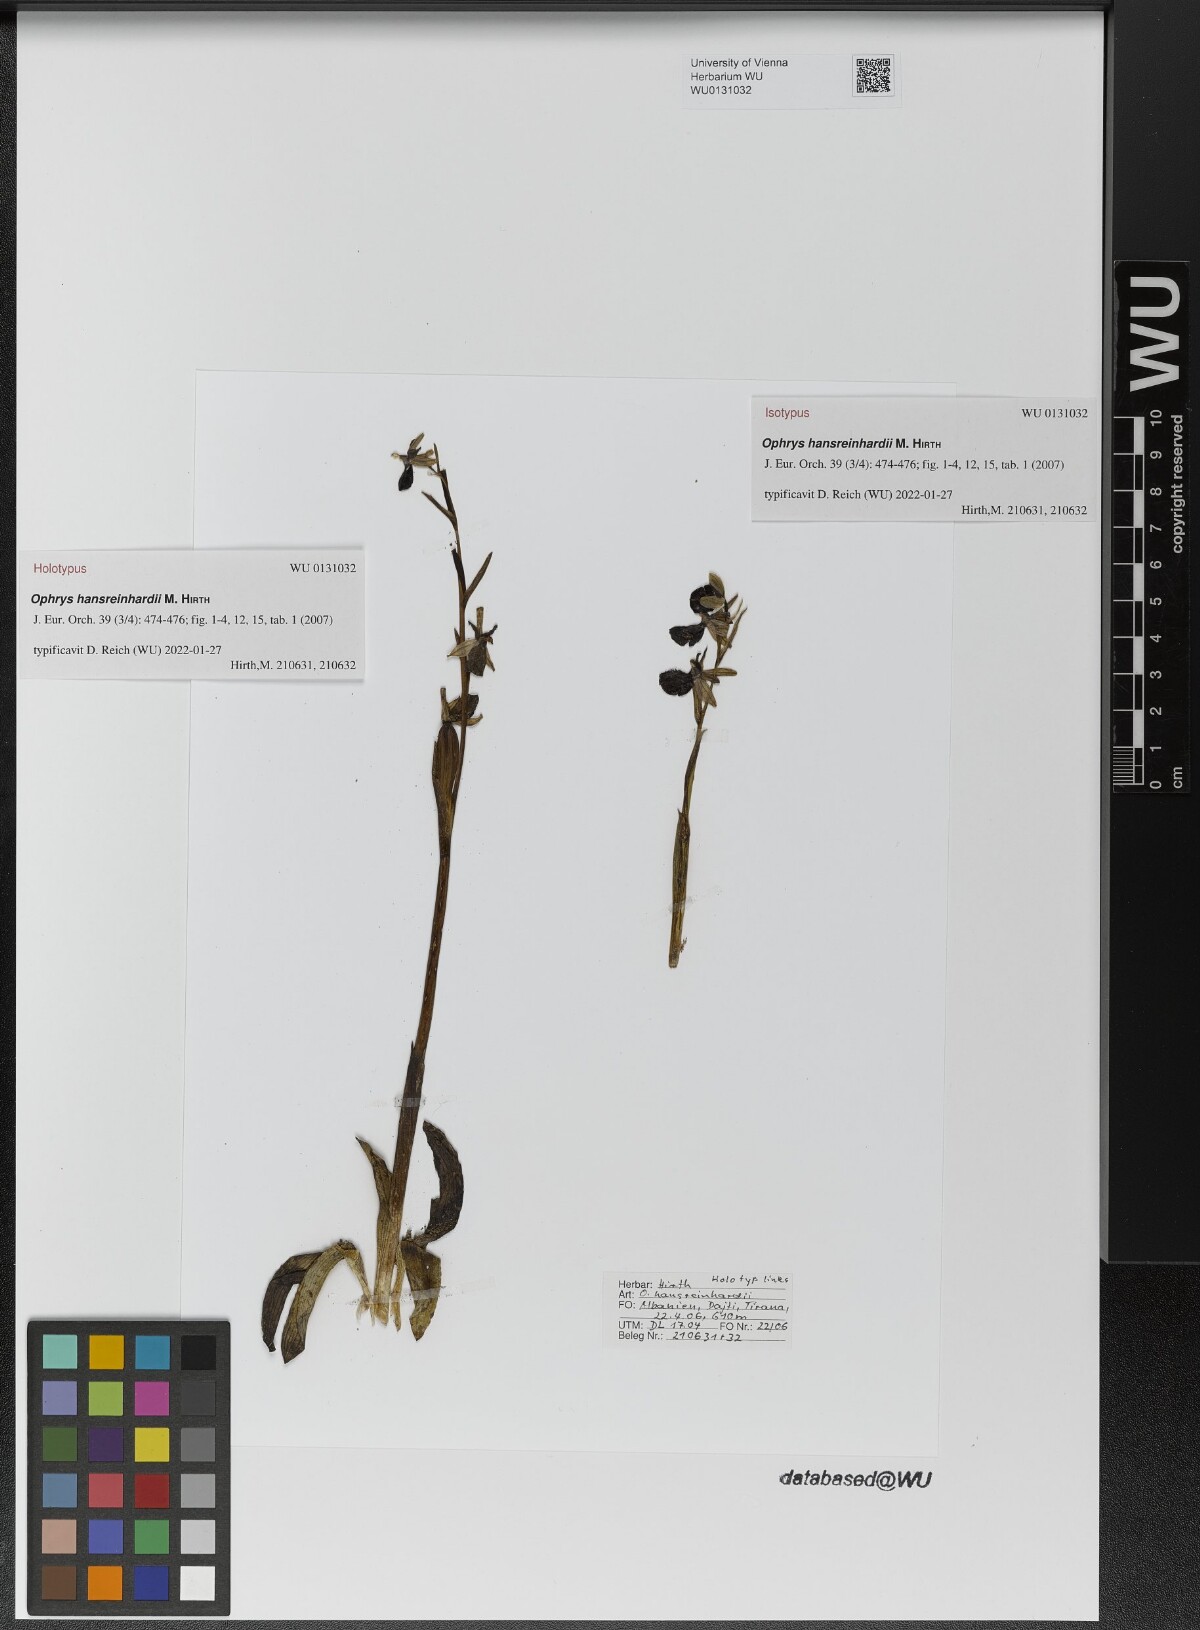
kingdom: Plantae
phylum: Tracheophyta
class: Liliopsida
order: Asparagales
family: Orchidaceae
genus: Ophrys
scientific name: Ophrys sphegodes
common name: Early spider-orchid
